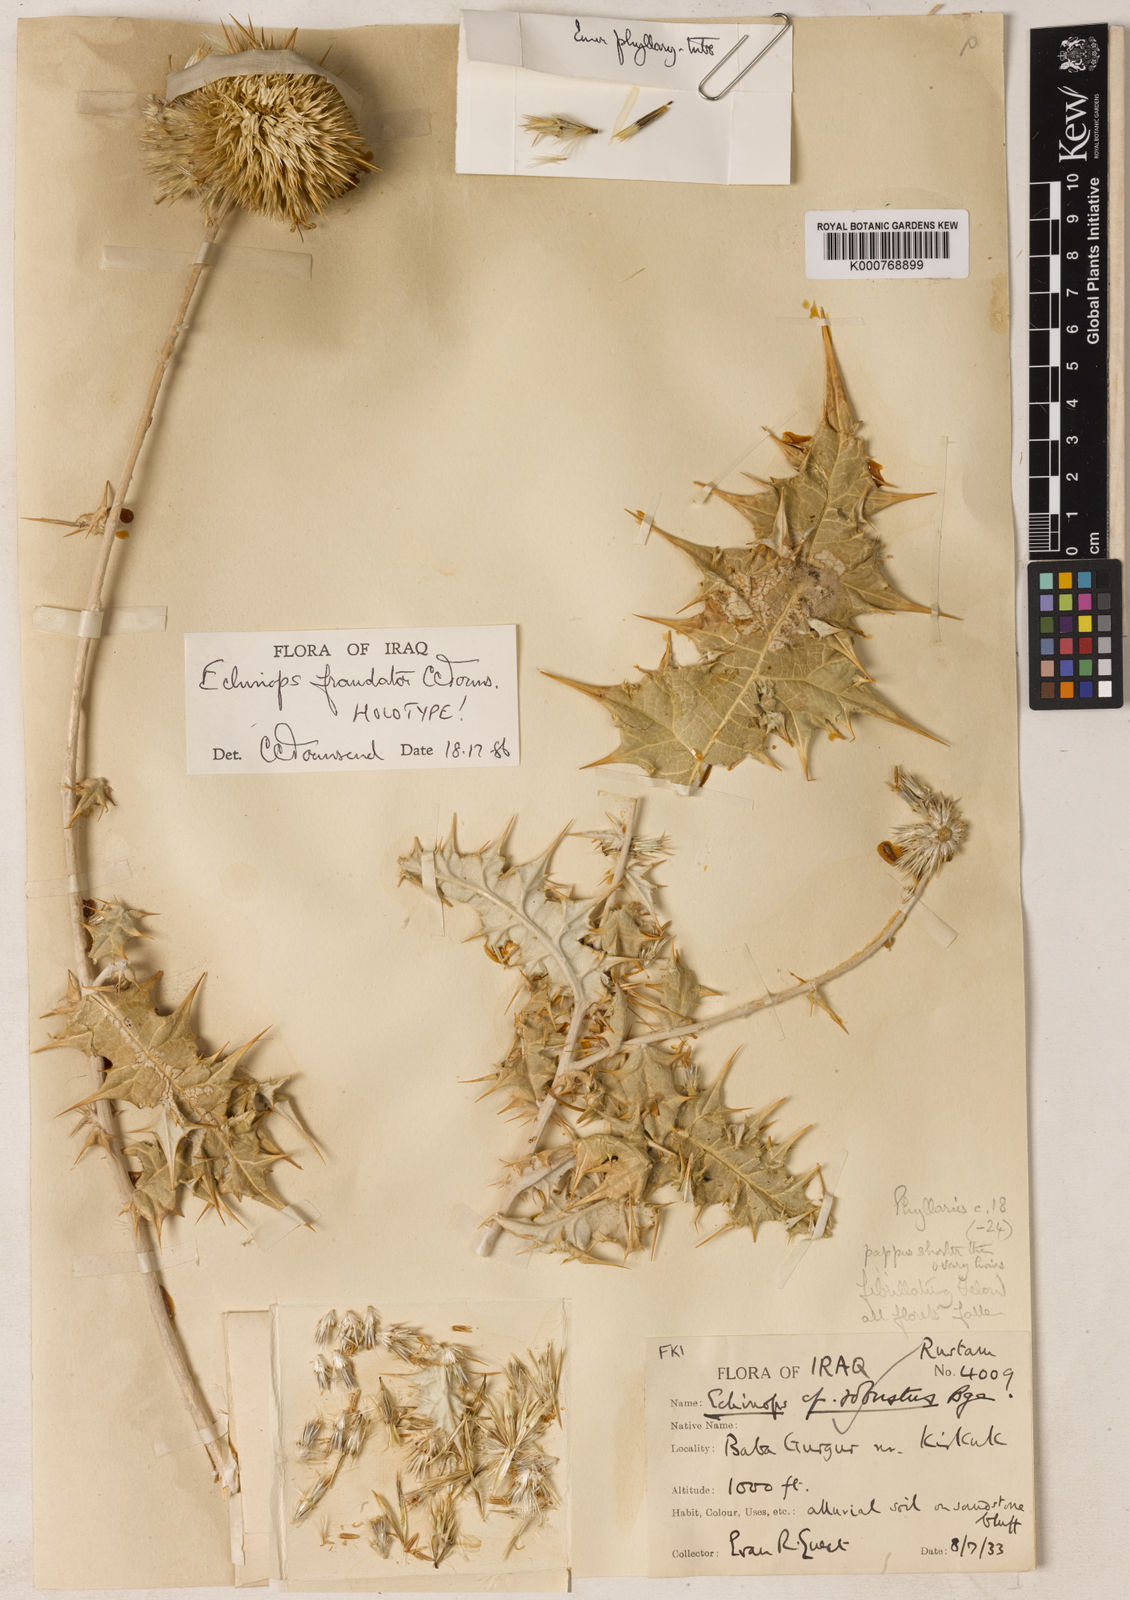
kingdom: Plantae
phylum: Tracheophyta
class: Magnoliopsida
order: Asterales
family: Asteraceae
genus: Echinops
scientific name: Echinops fraudator
